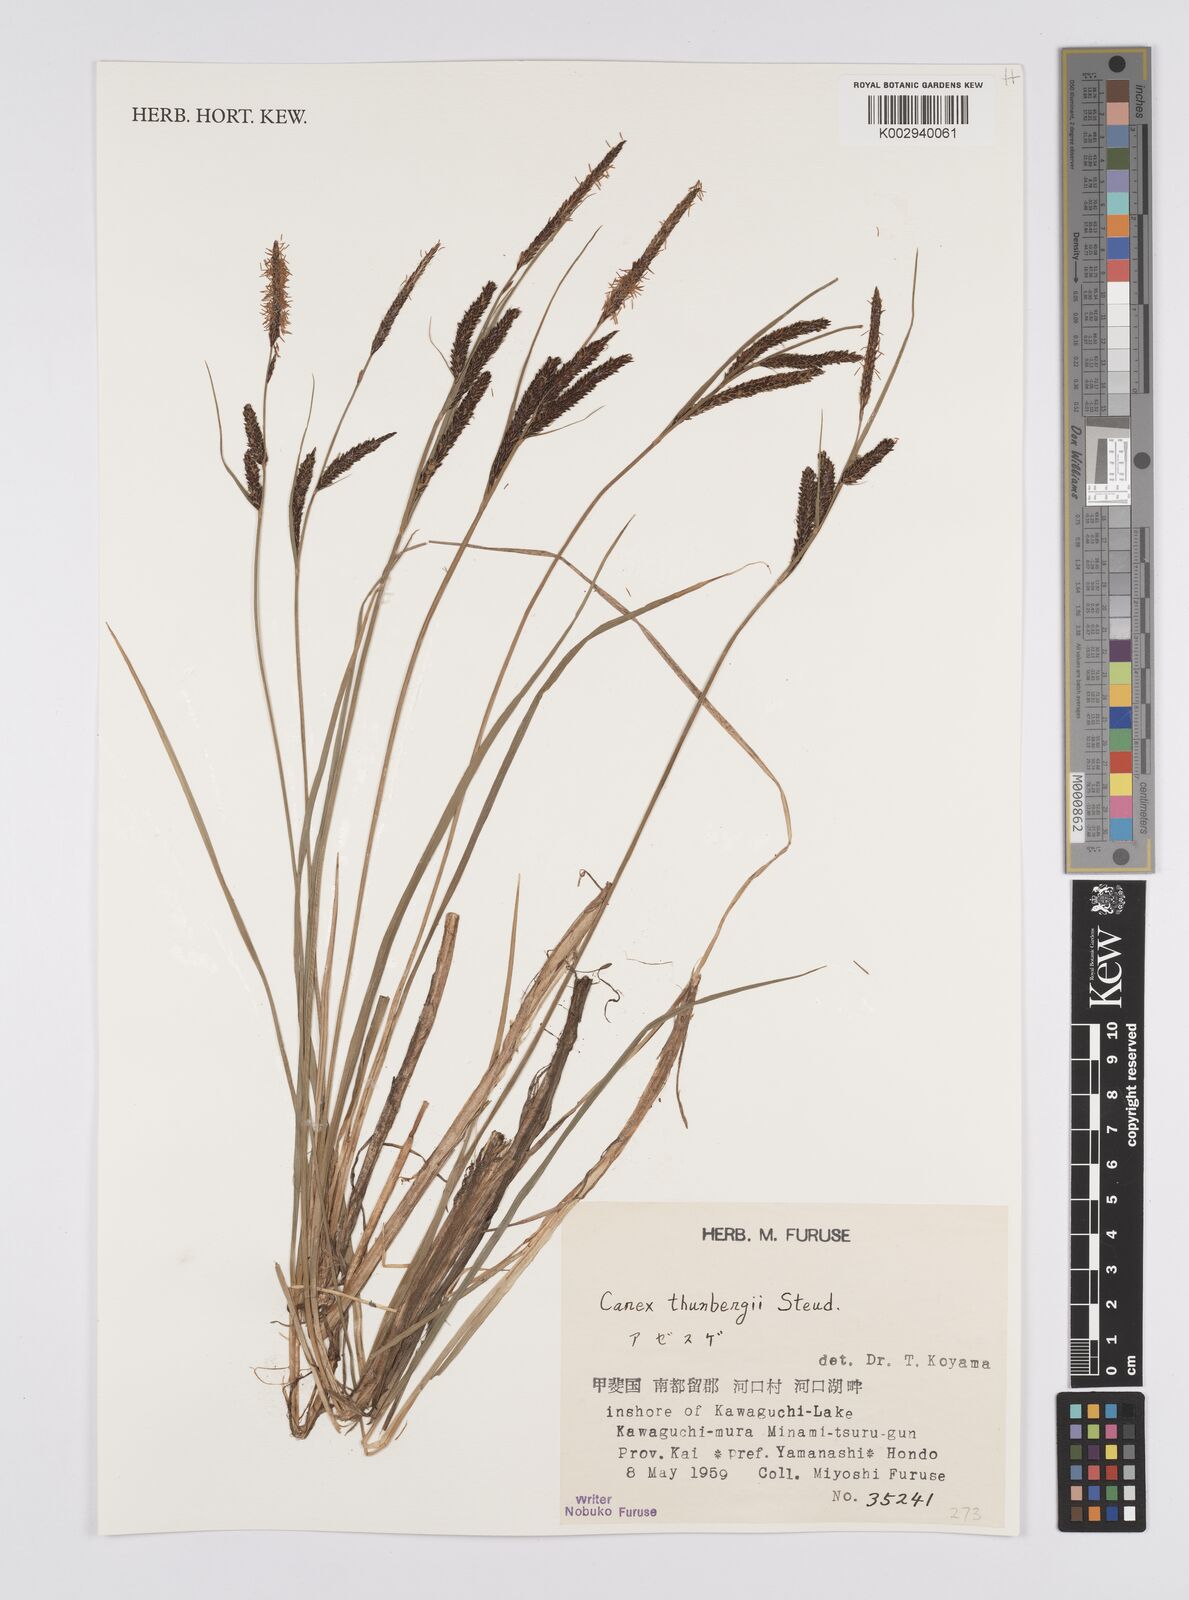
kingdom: Plantae
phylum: Tracheophyta
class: Liliopsida
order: Poales
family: Cyperaceae
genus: Carex
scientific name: Carex thunbergii
